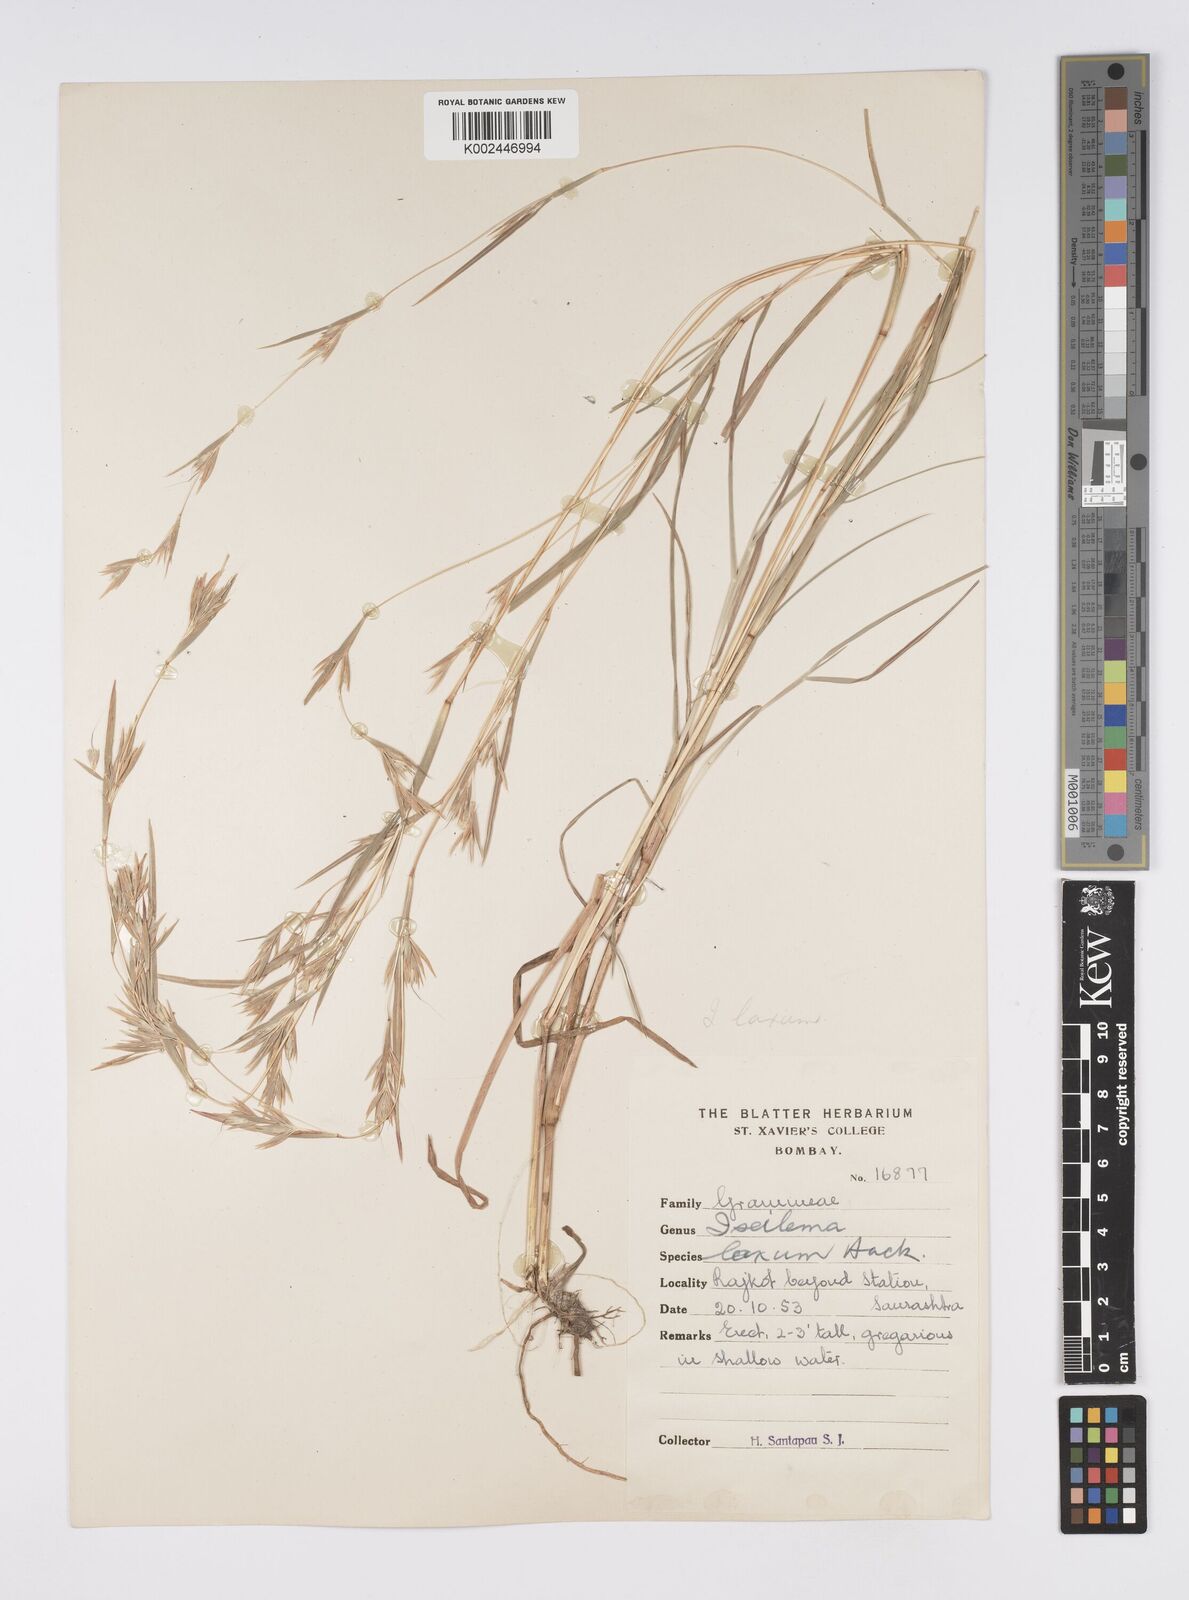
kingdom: Plantae
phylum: Tracheophyta
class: Liliopsida
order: Poales
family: Poaceae
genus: Iseilema
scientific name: Iseilema prostratum
